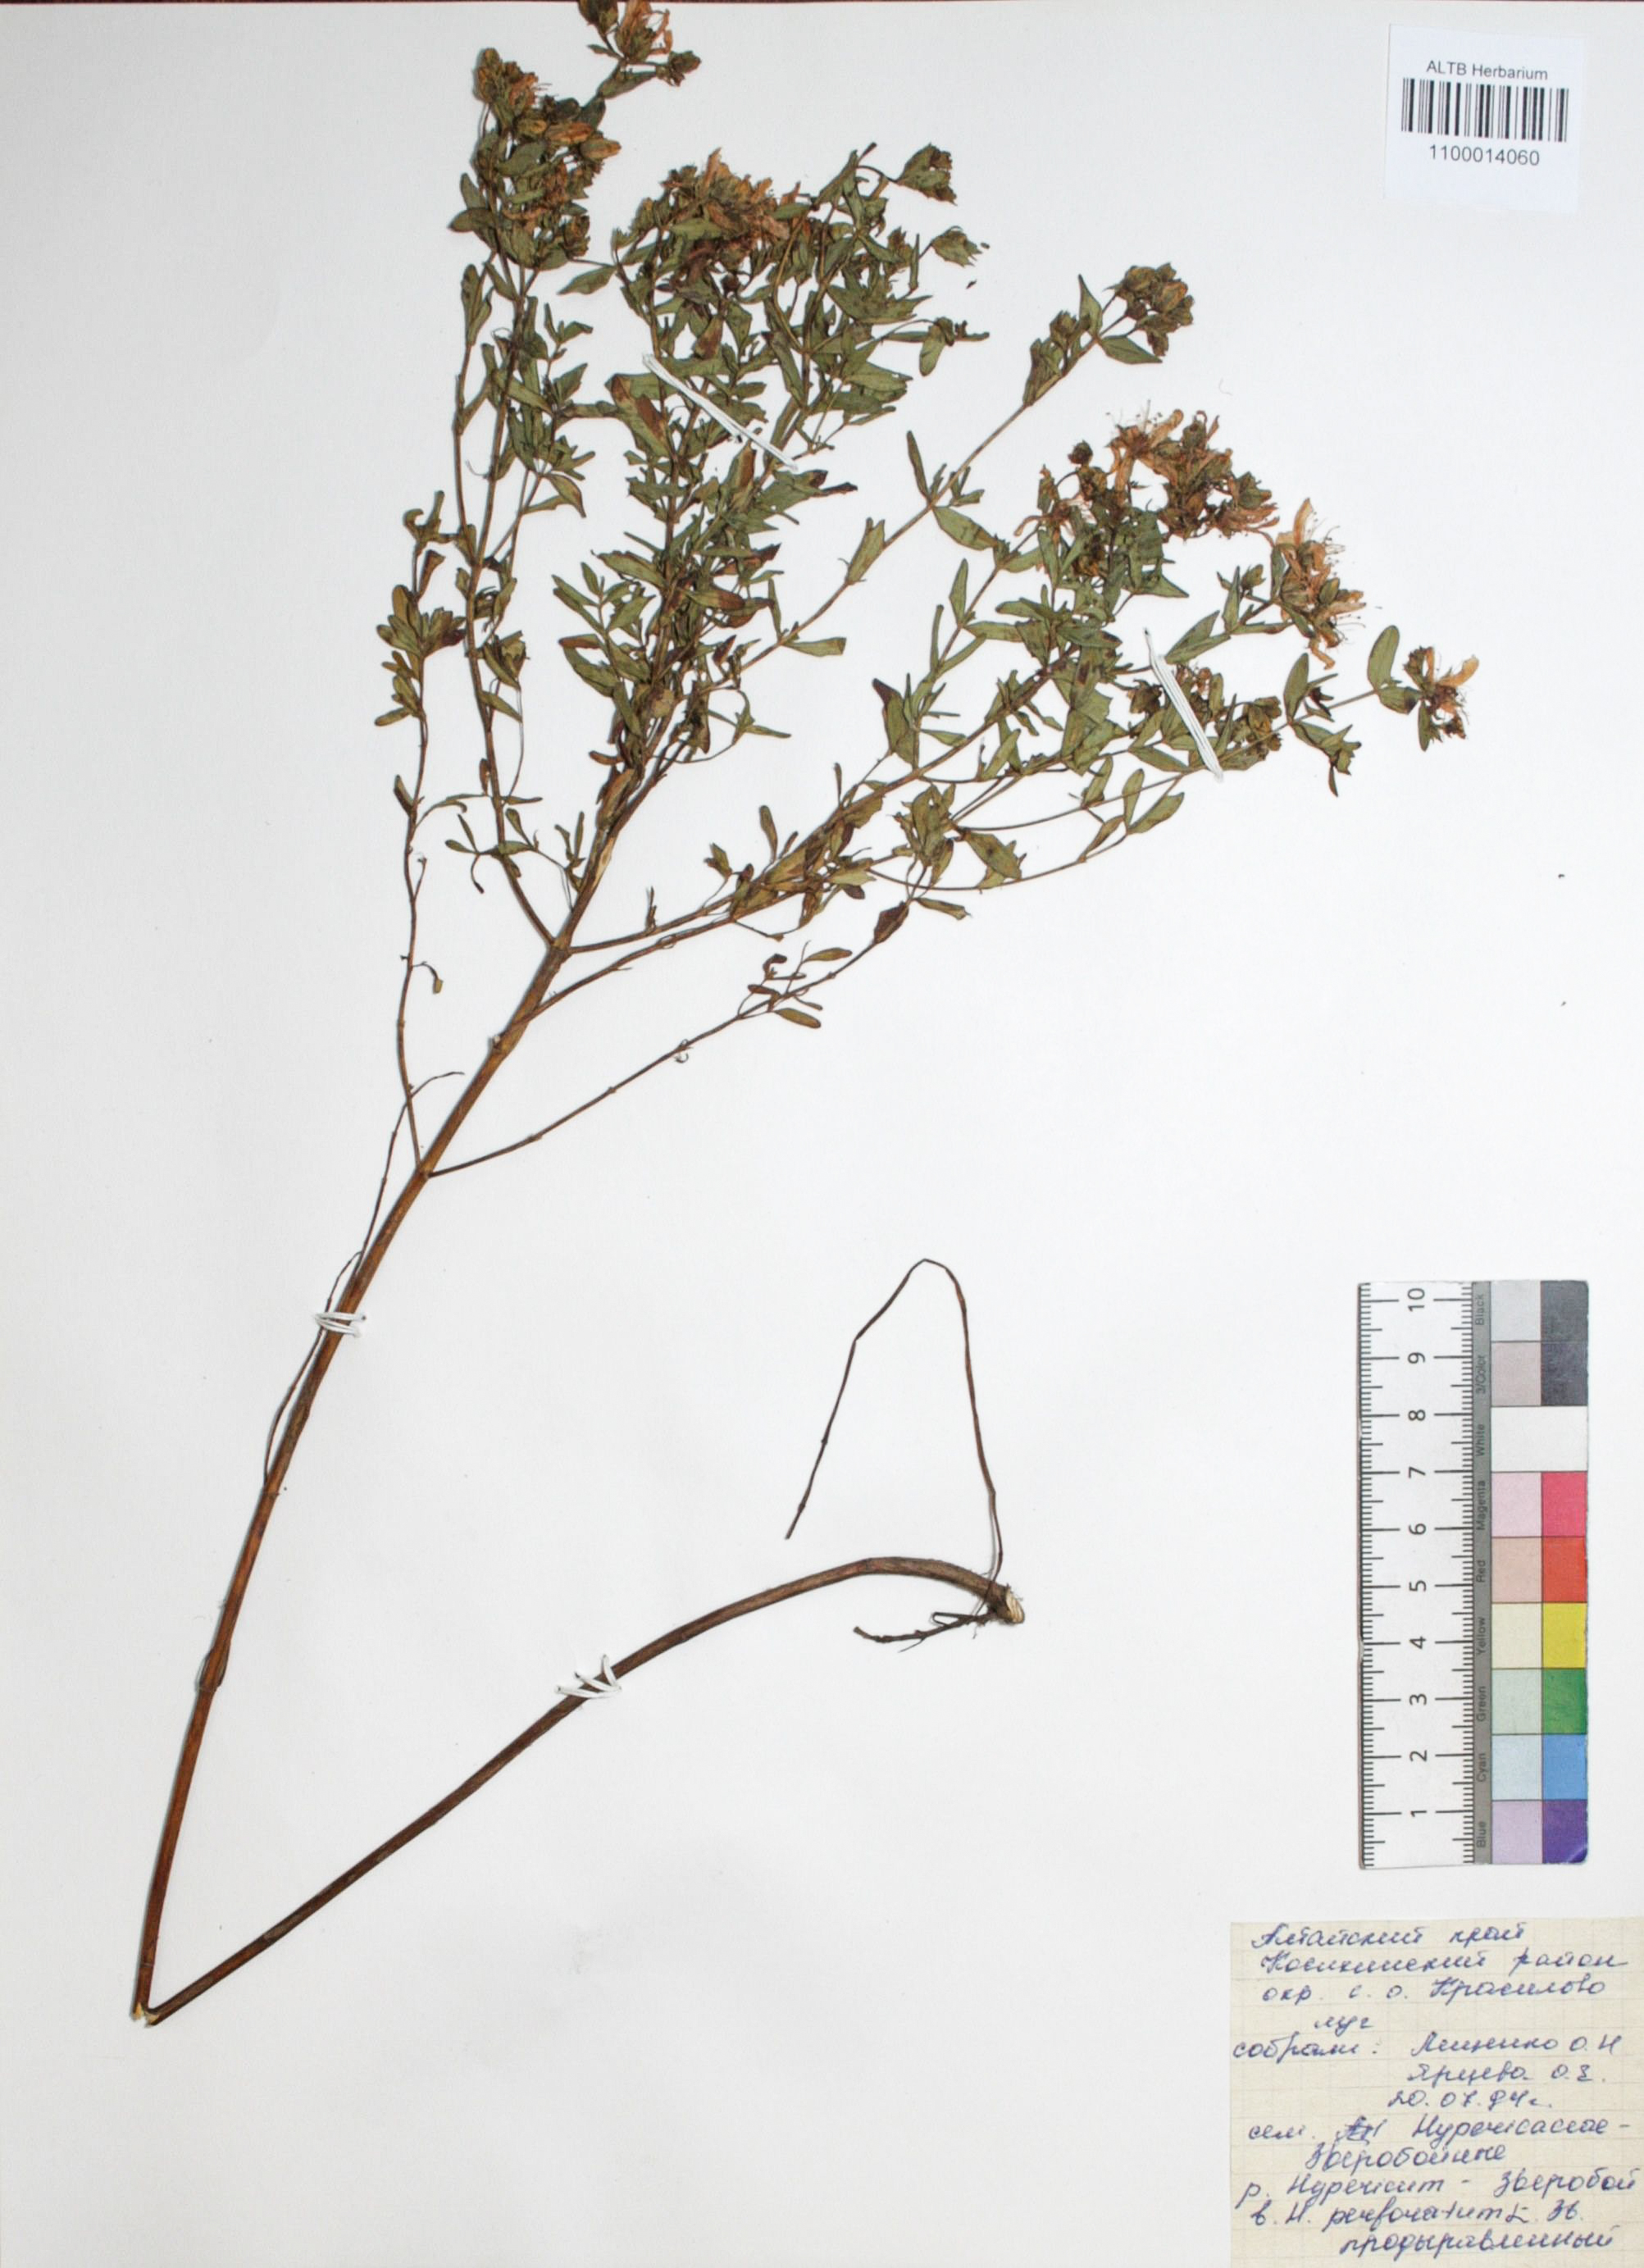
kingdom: Plantae
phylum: Tracheophyta
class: Magnoliopsida
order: Malpighiales
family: Hypericaceae
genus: Hypericum
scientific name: Hypericum perforatum
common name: Common st. johnswort
